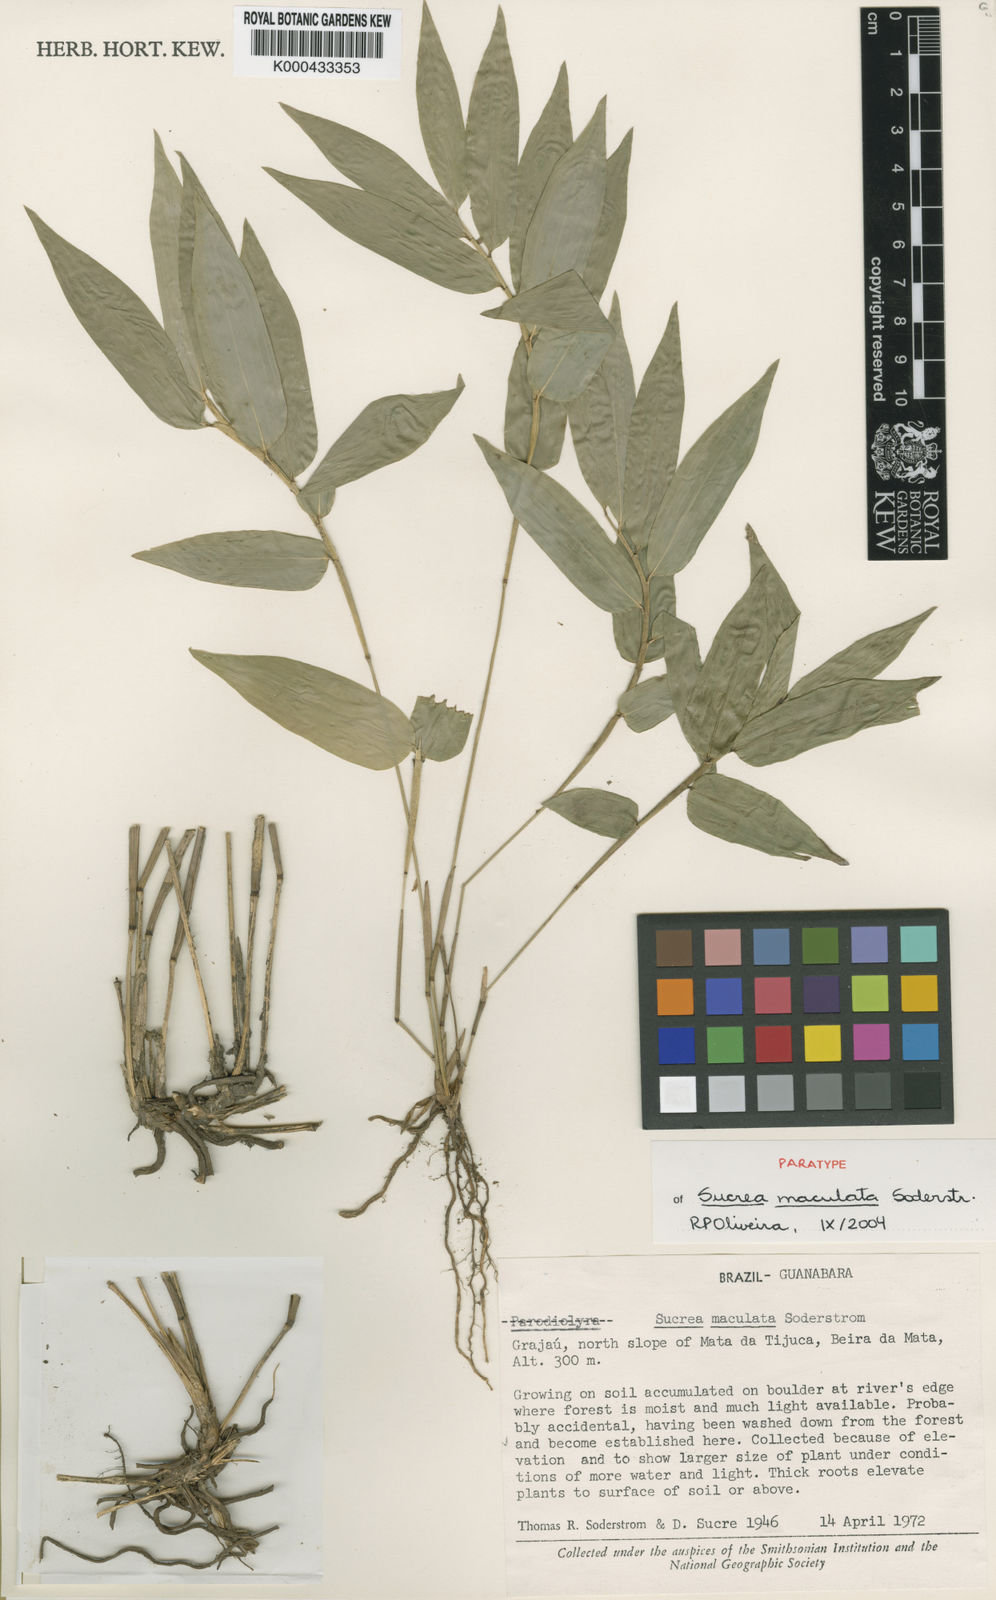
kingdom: Plantae
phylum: Tracheophyta
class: Liliopsida
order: Poales
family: Poaceae
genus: Raddia
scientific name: Raddia maculata
